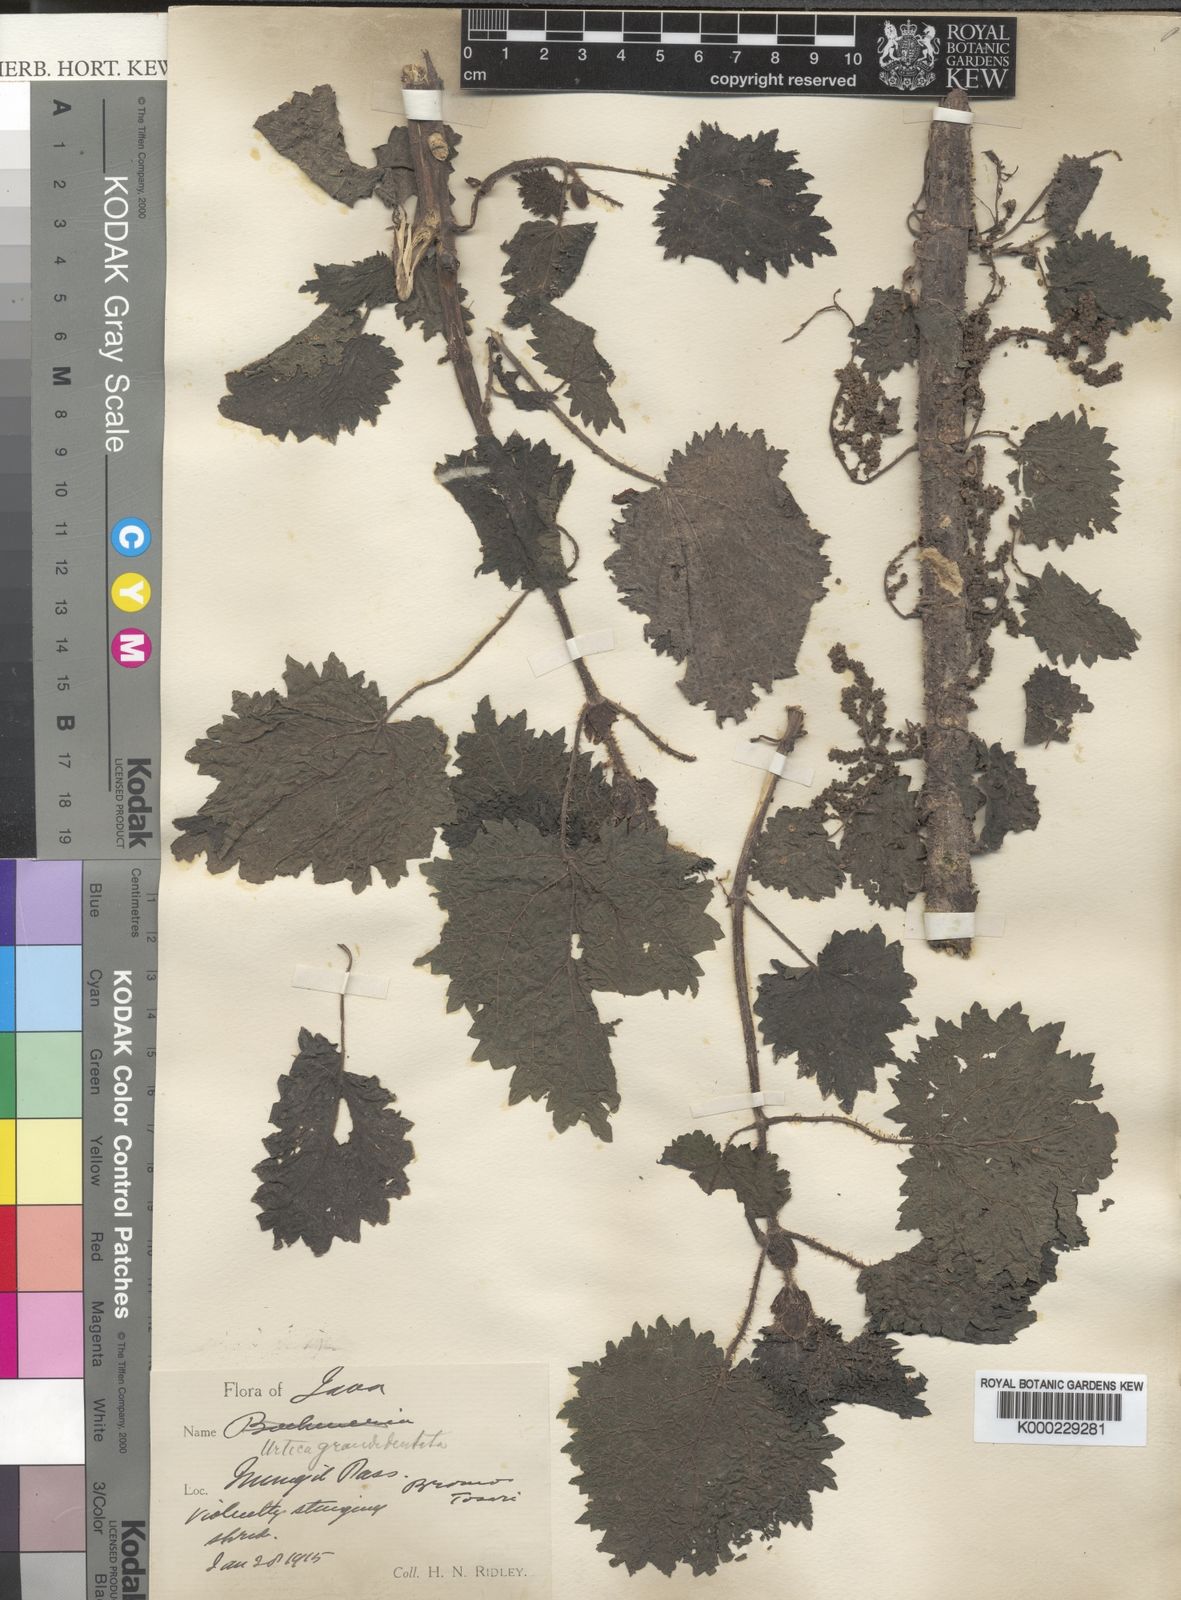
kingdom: Plantae
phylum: Tracheophyta
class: Magnoliopsida
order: Rosales
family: Urticaceae
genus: Urtica
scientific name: Urtica atrovirens
